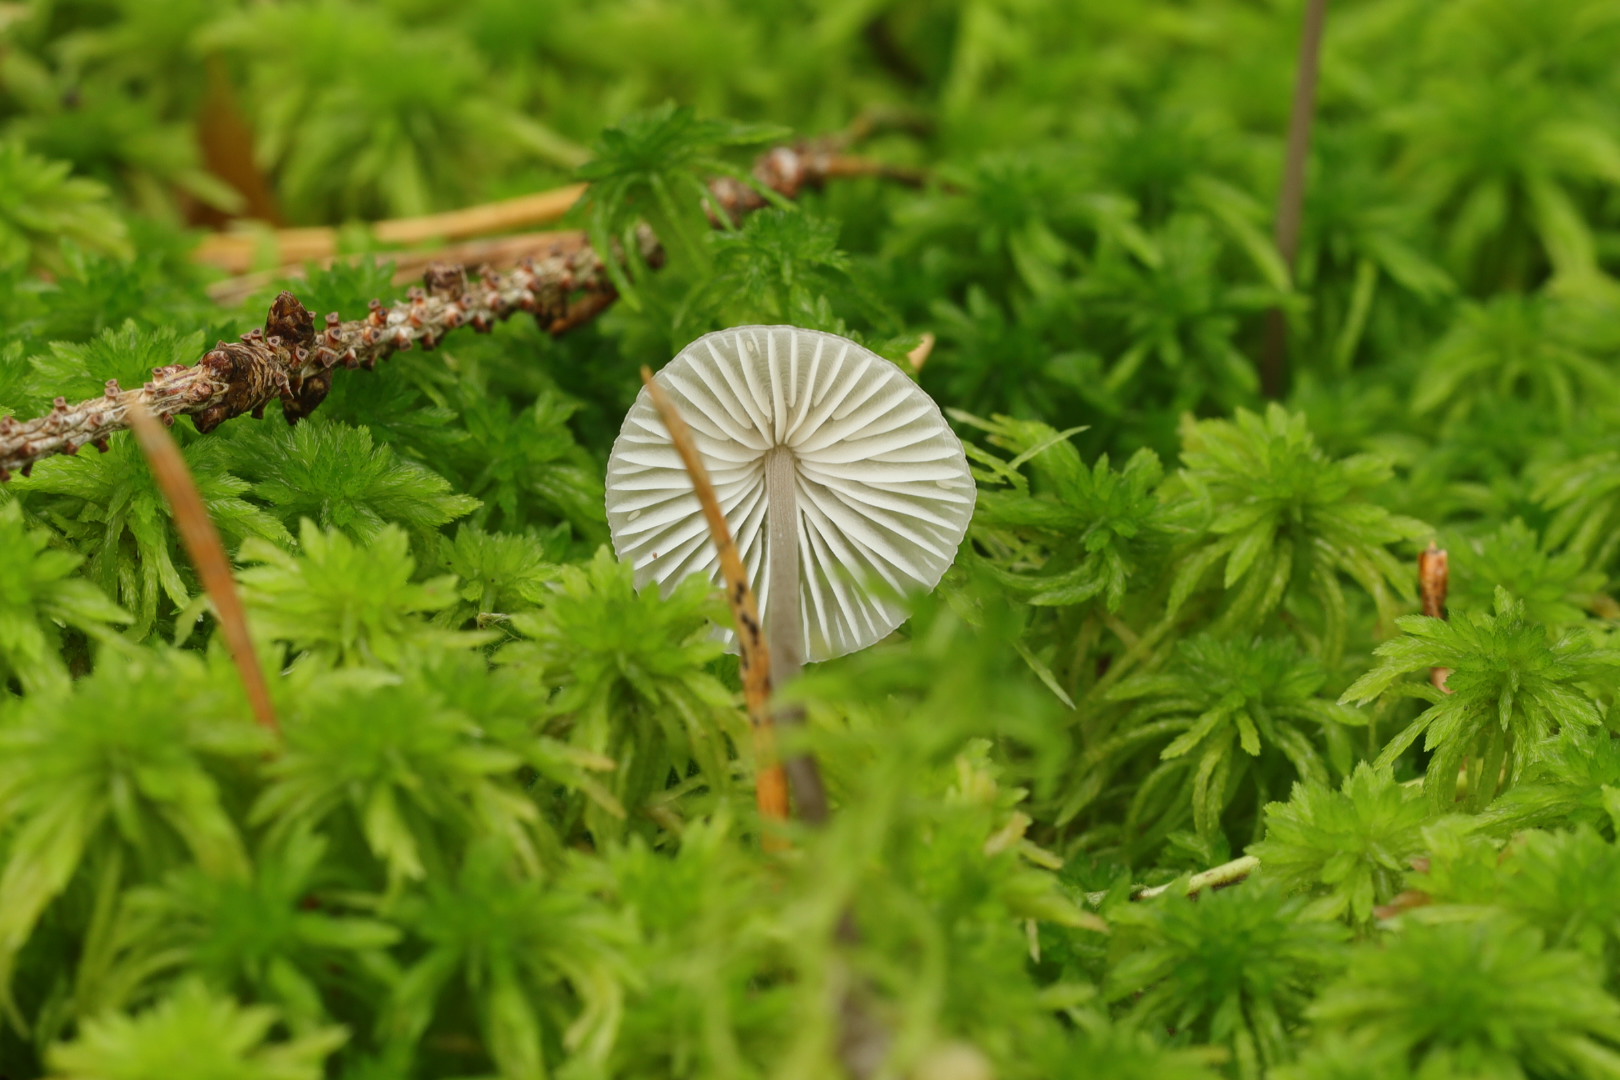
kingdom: Fungi
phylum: Basidiomycota
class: Agaricomycetes
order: Agaricales
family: Mycenaceae
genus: Mycena
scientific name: Mycena
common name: huesvamp
